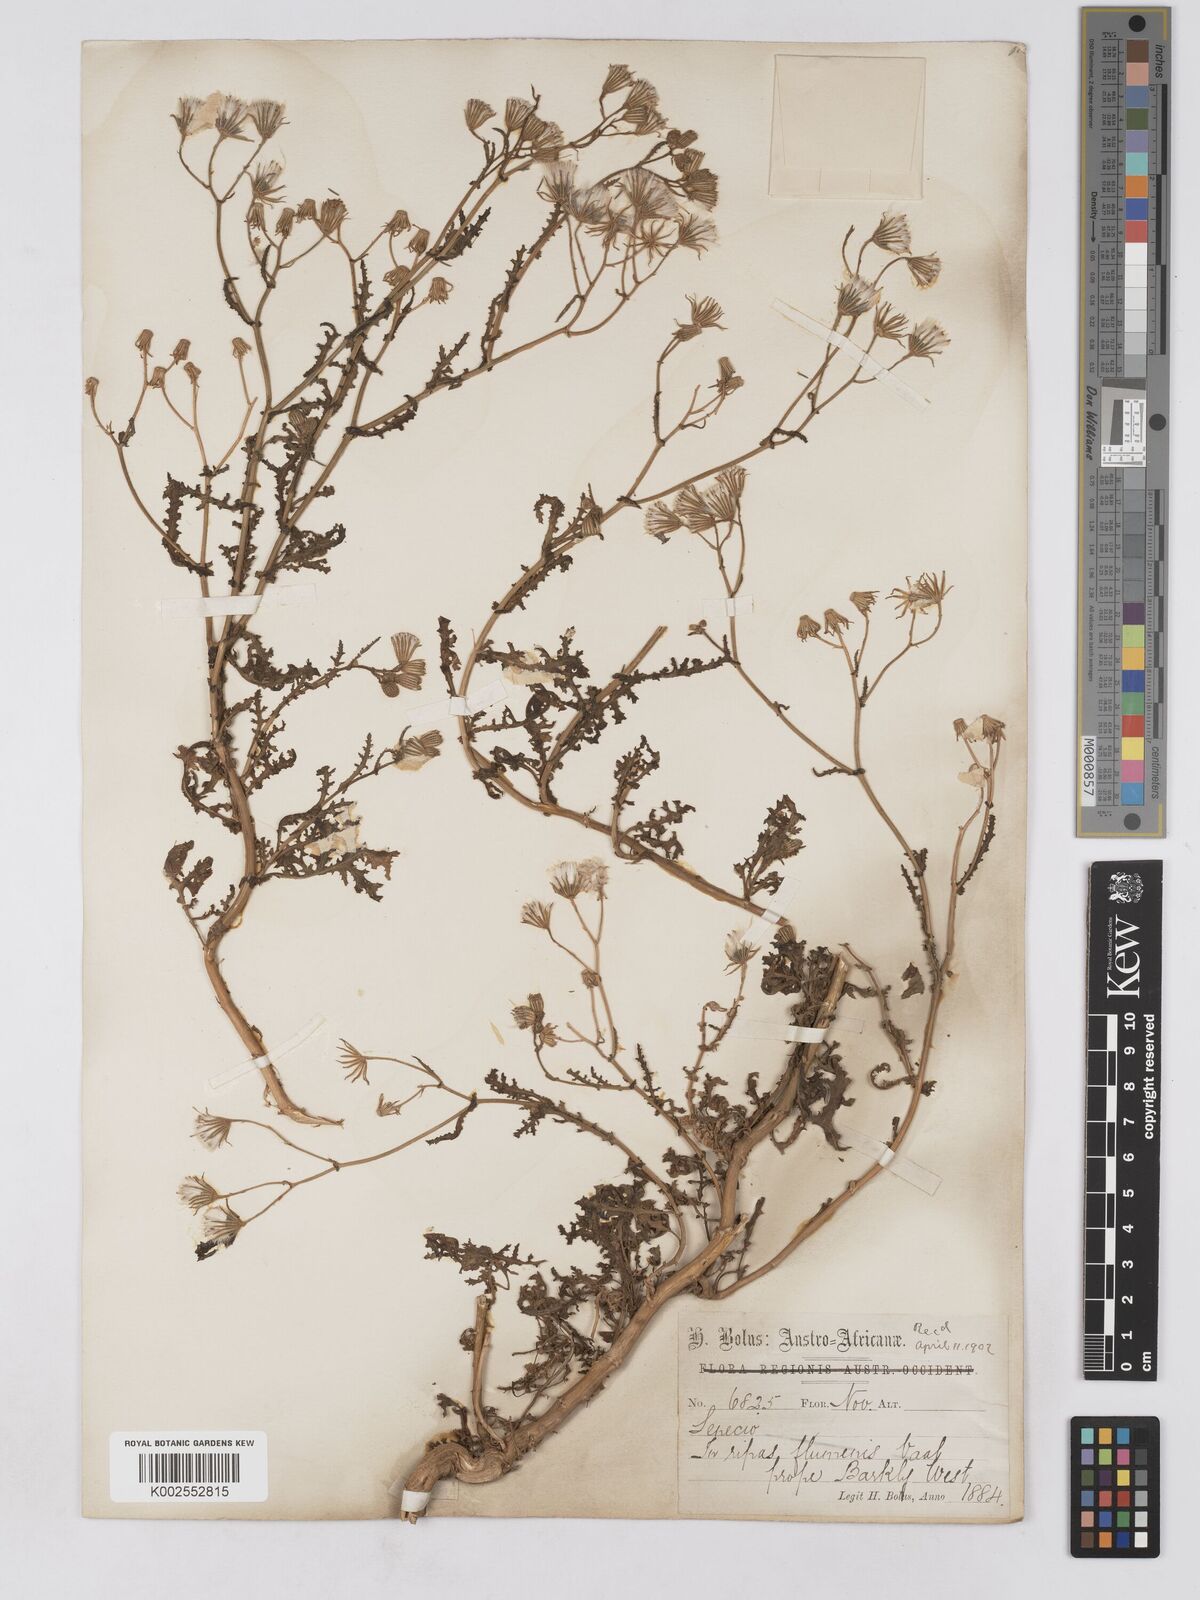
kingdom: Plantae
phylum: Tracheophyta
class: Magnoliopsida
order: Asterales
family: Asteraceae
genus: Senecio
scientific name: Senecio consanguineus
